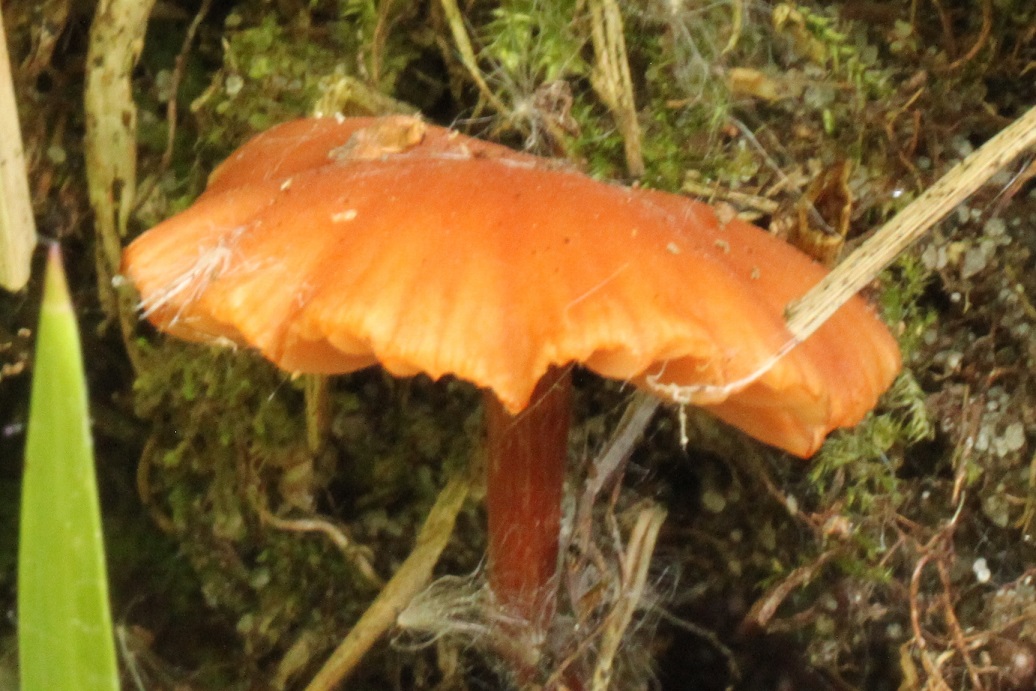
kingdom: Fungi
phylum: Basidiomycota
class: Agaricomycetes
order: Agaricales
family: Hydnangiaceae
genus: Laccaria
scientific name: Laccaria laccata
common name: rød ametysthat
